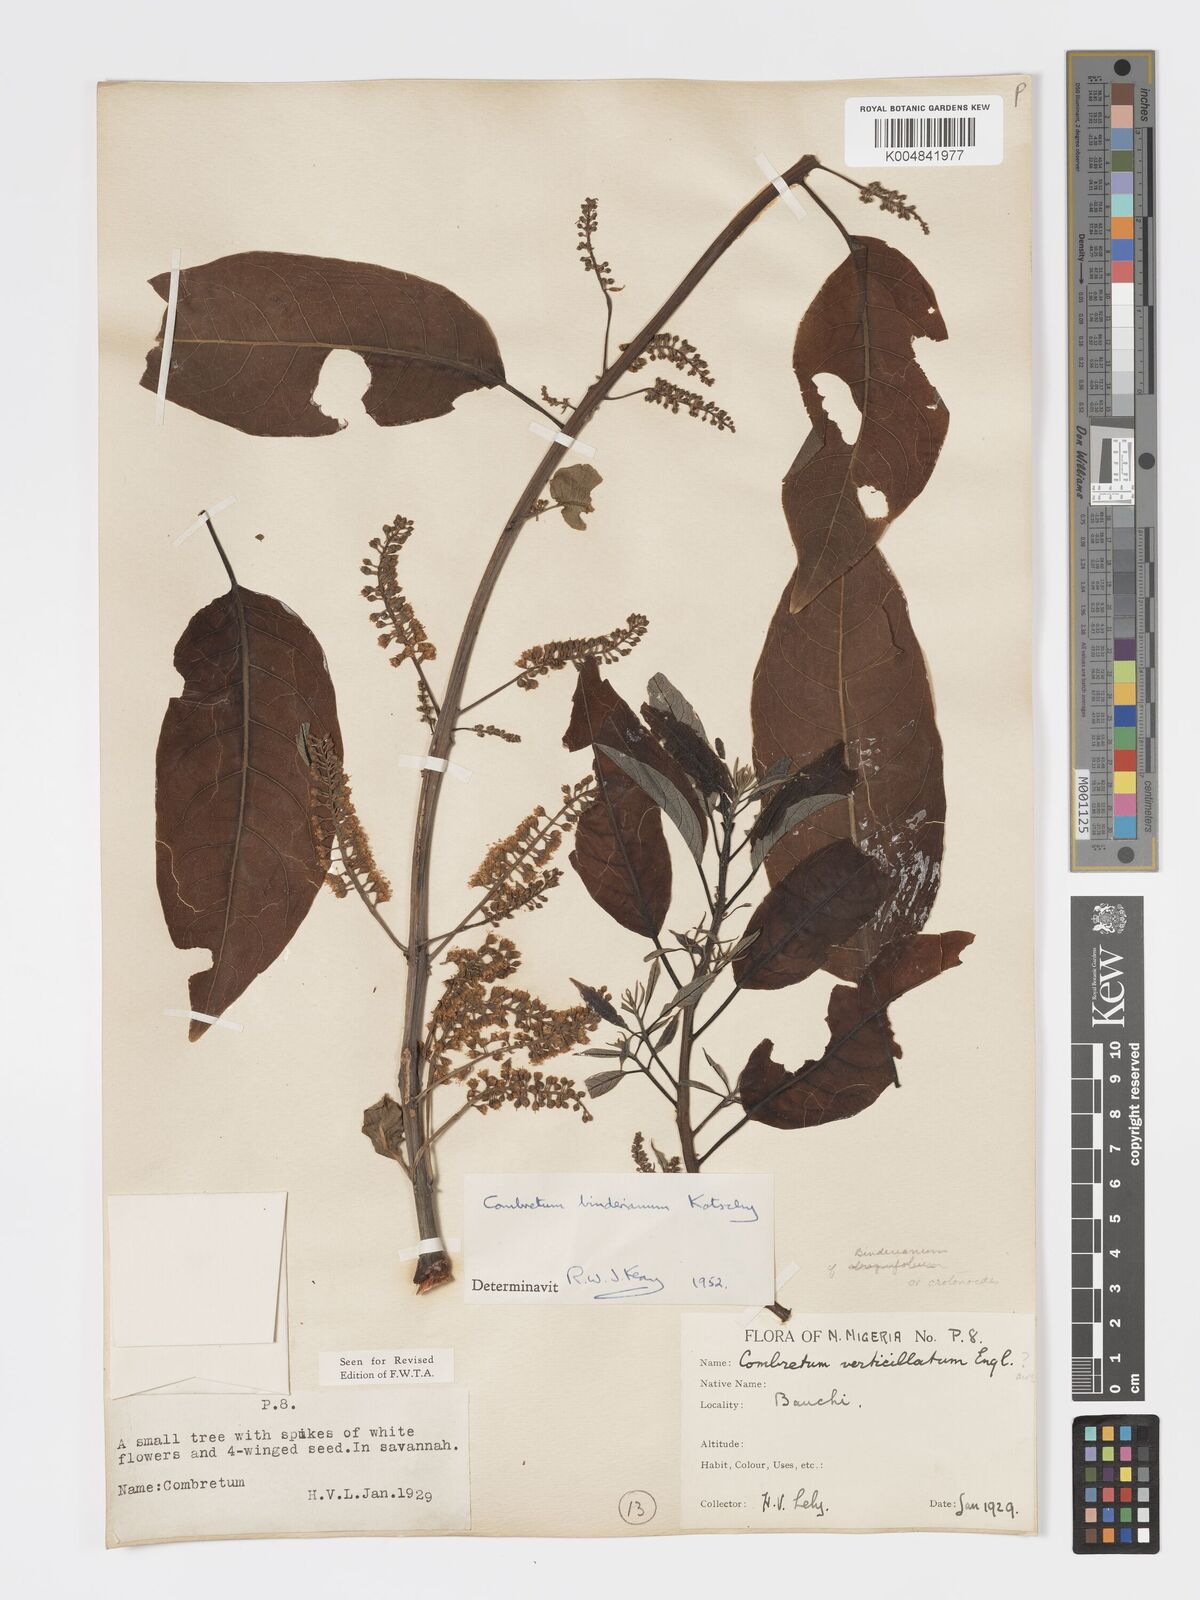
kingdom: Plantae
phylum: Tracheophyta
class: Magnoliopsida
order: Myrtales
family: Combretaceae
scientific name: Combretaceae
